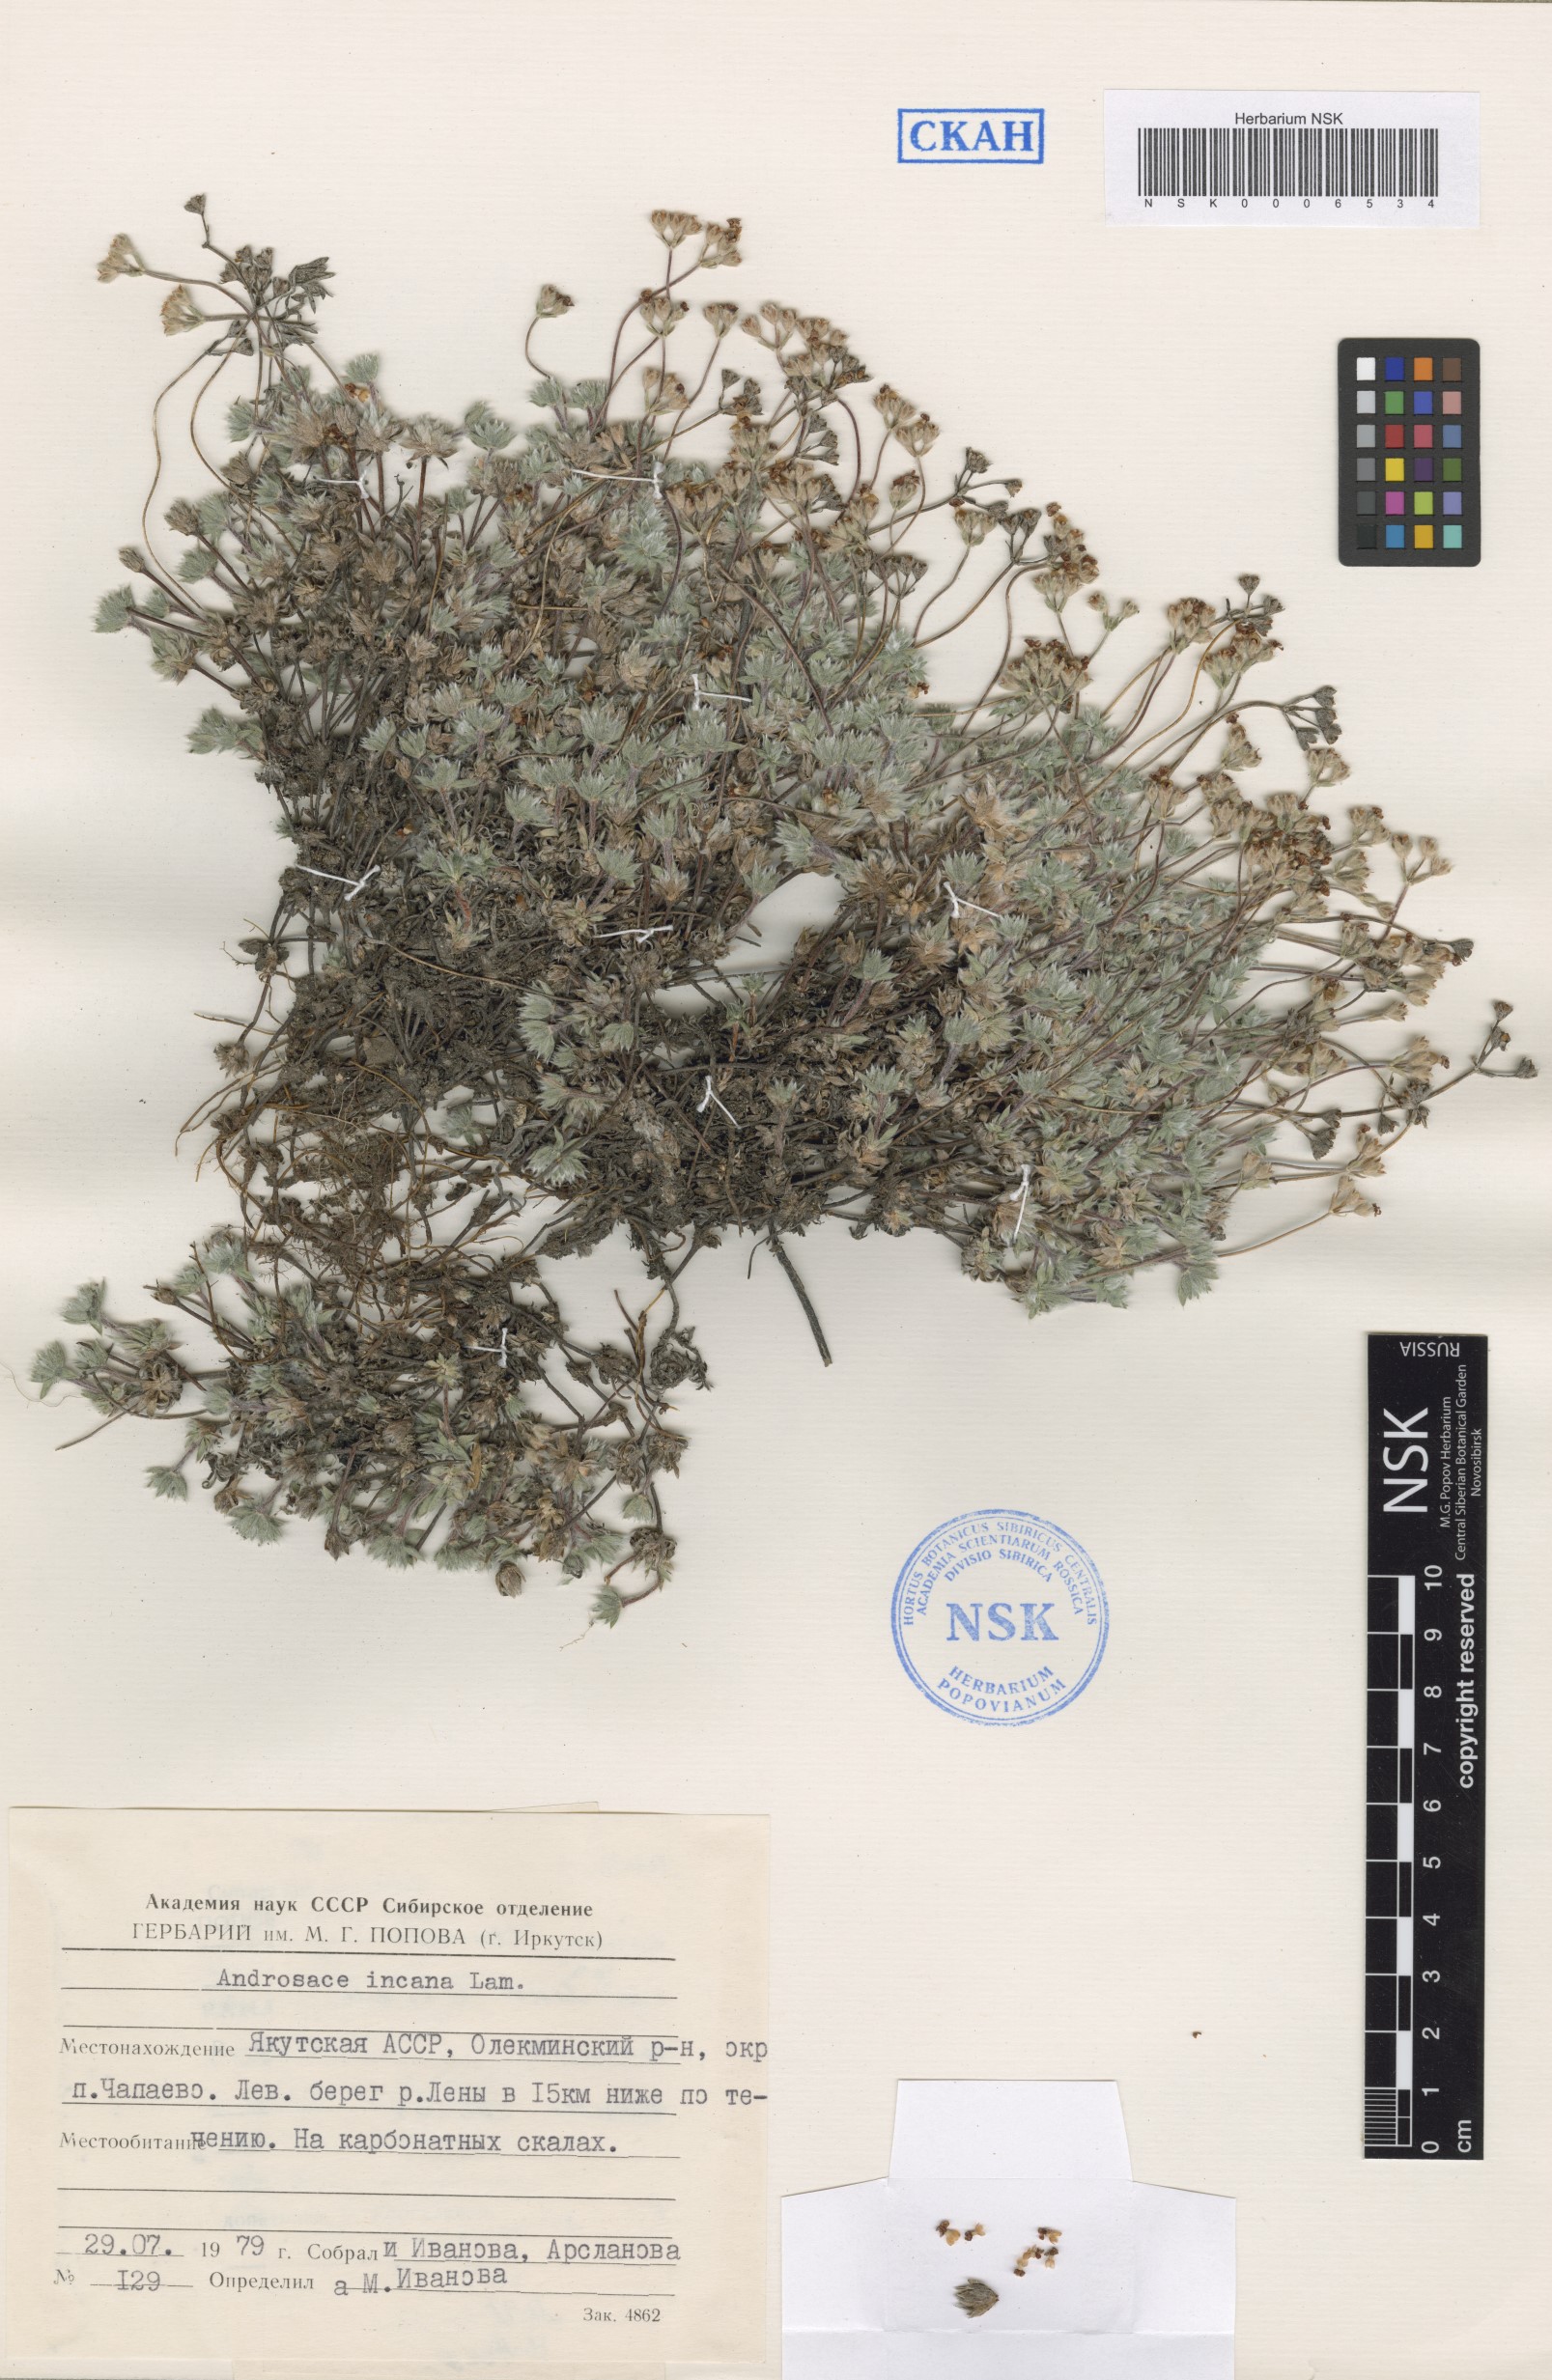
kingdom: Plantae
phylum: Tracheophyta
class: Magnoliopsida
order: Ericales
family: Primulaceae
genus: Androsace
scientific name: Androsace incana
